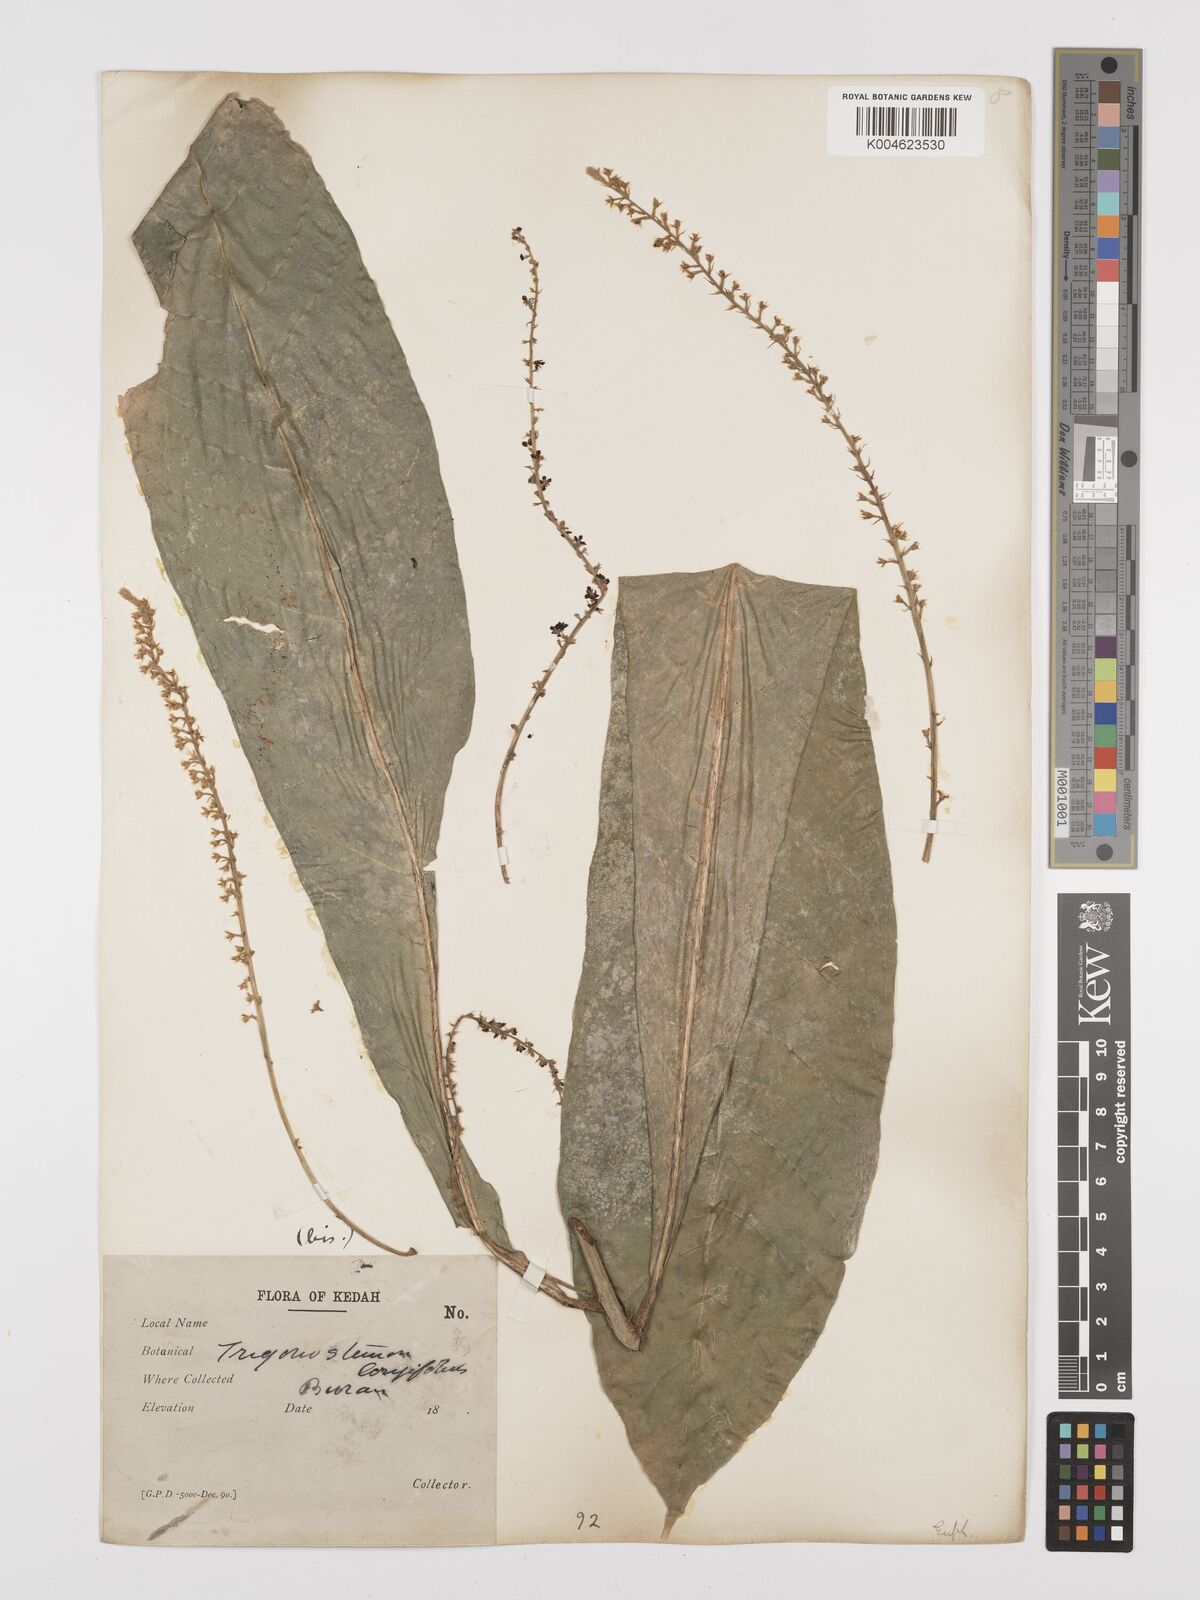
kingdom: Plantae
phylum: Tracheophyta
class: Magnoliopsida
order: Malpighiales
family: Euphorbiaceae
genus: Trigonostemon
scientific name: Trigonostemon longifolius
